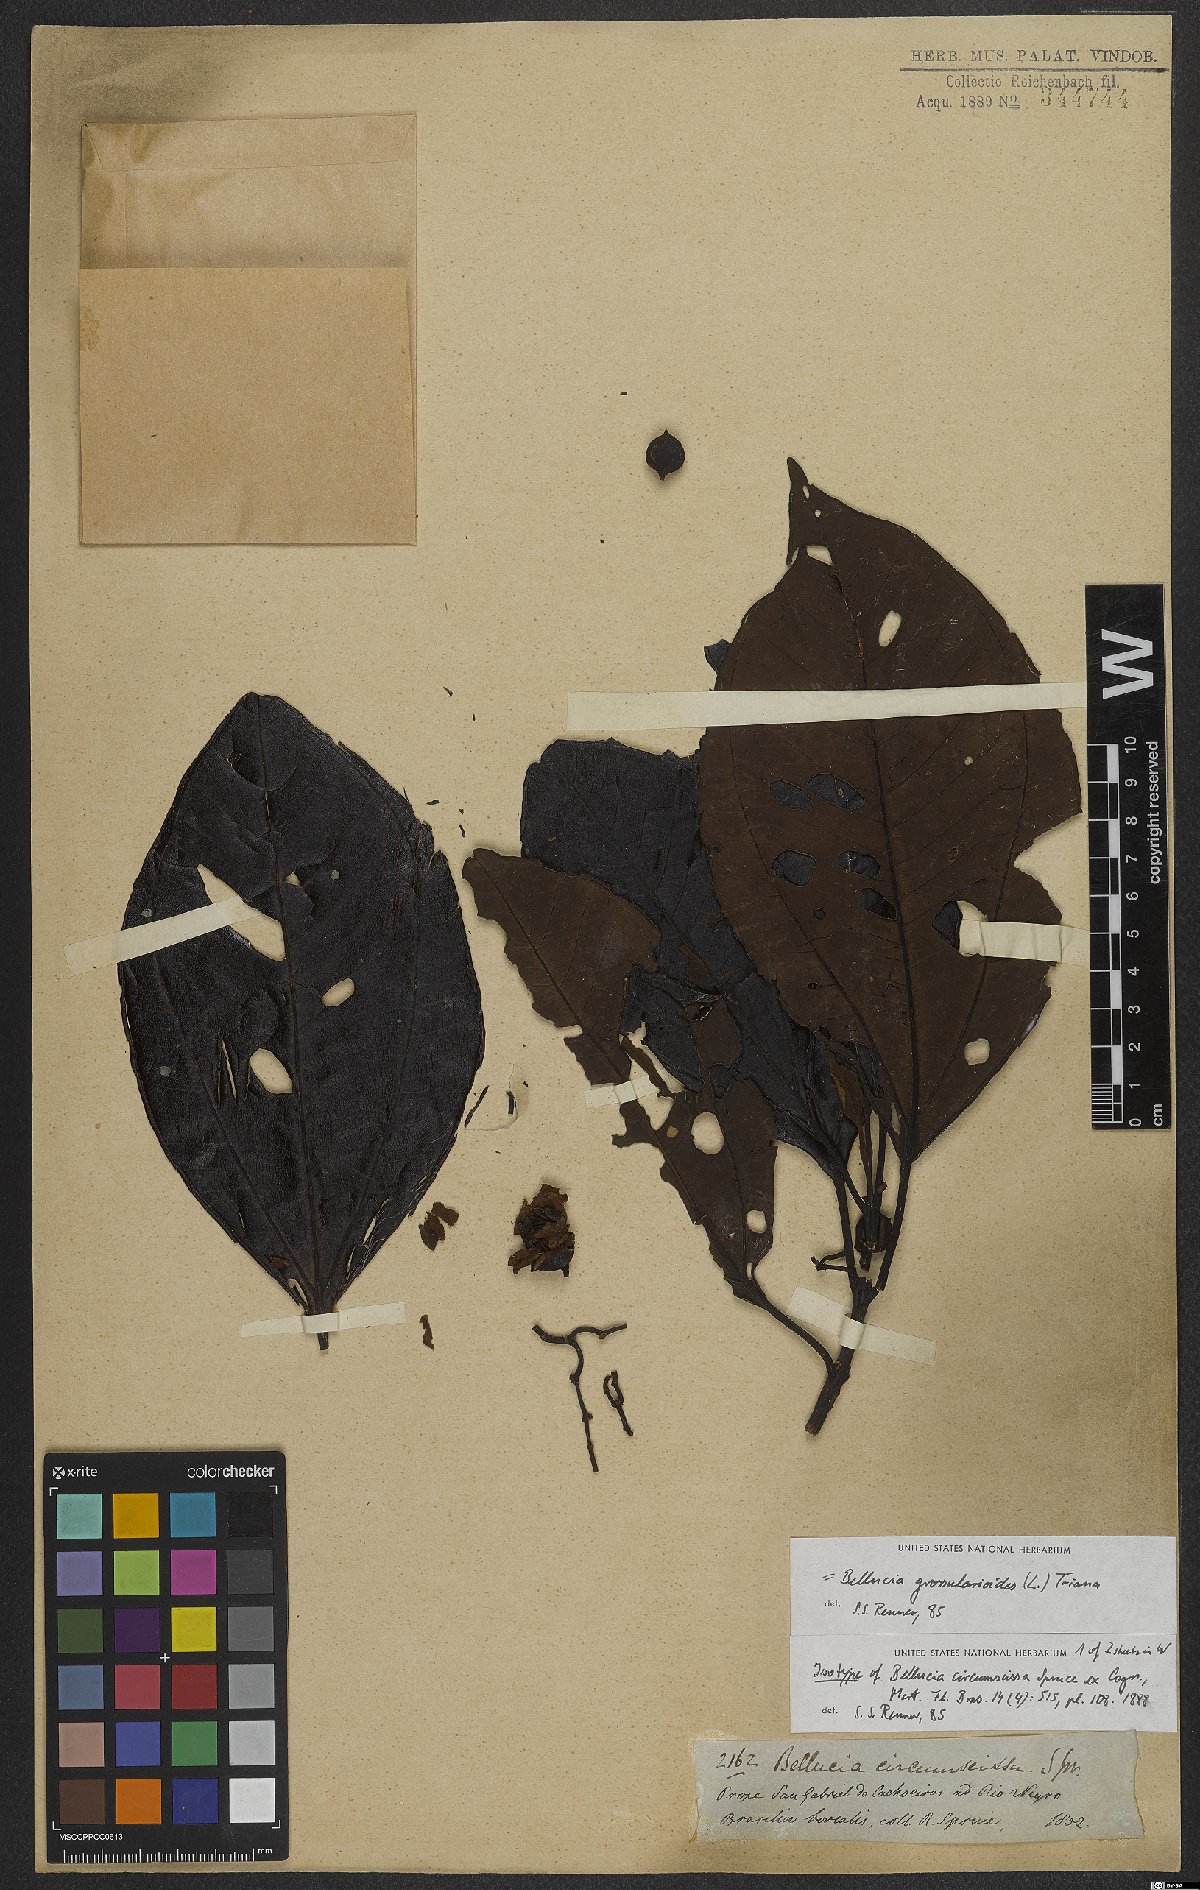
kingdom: Plantae
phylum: Tracheophyta
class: Magnoliopsida
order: Myrtales
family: Melastomataceae
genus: Bellucia
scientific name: Bellucia grossularioides
